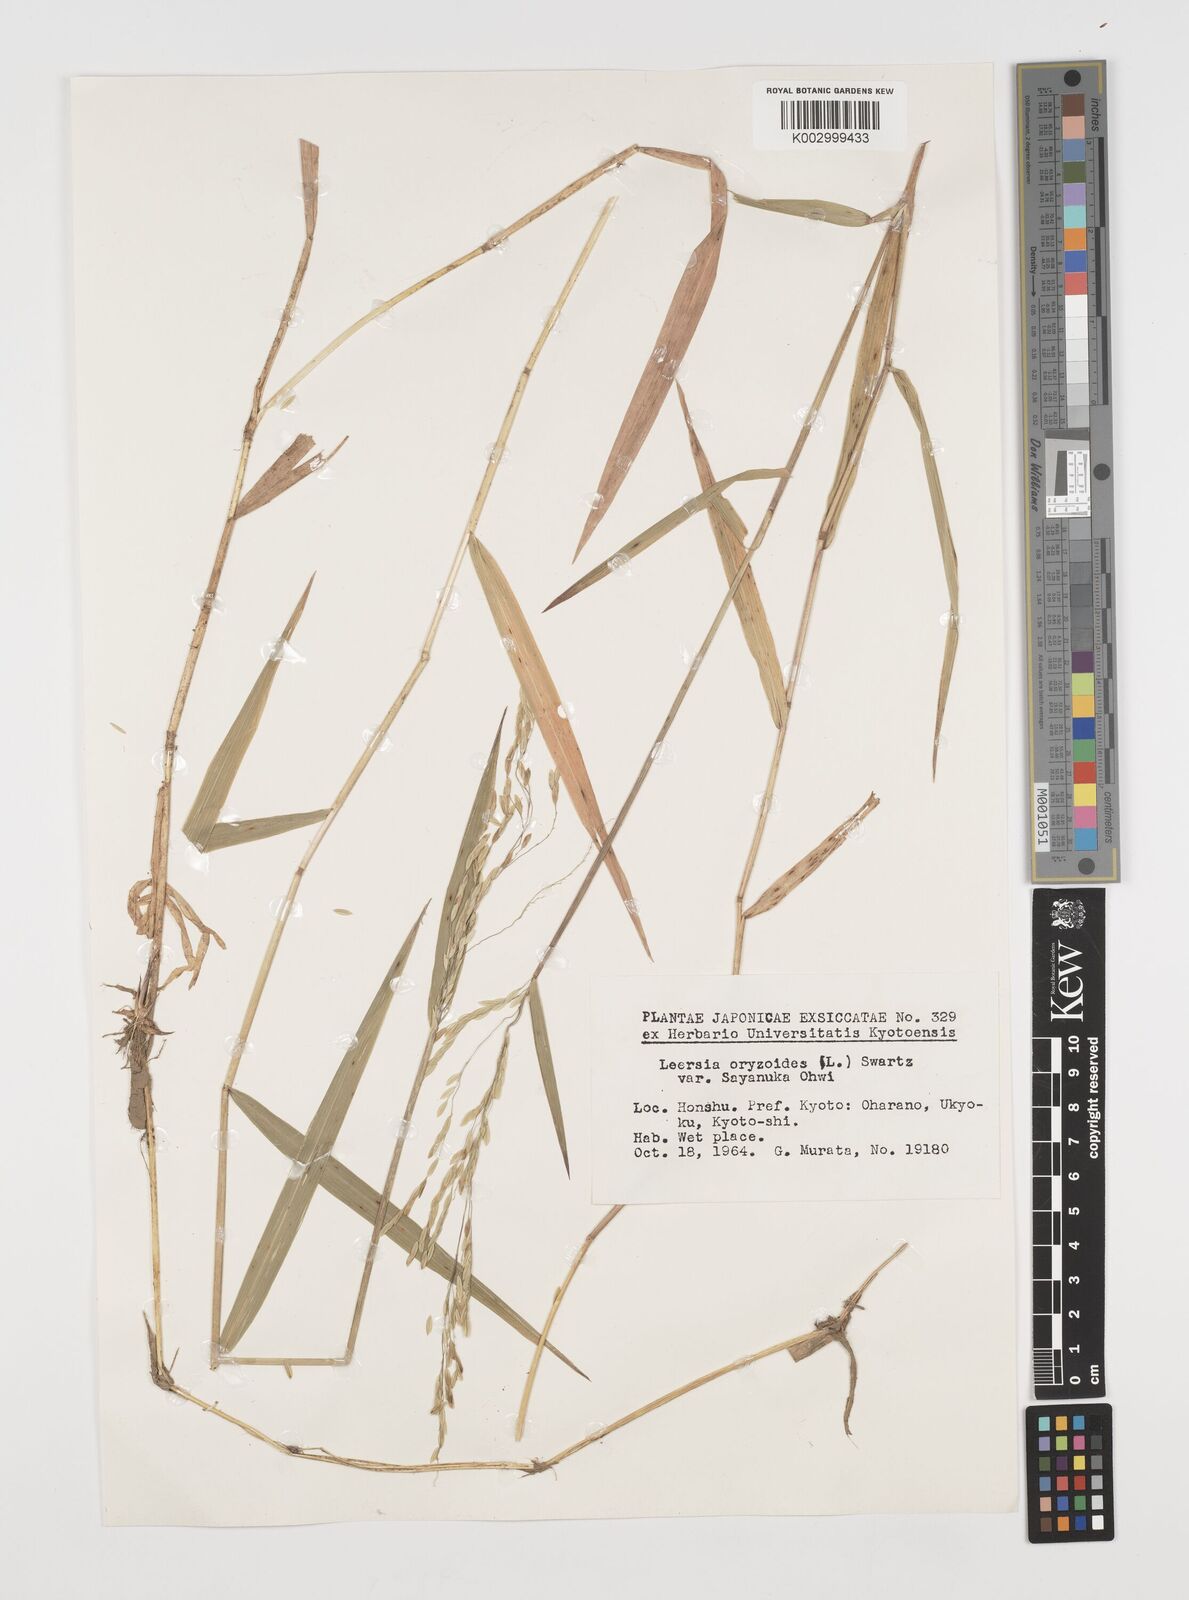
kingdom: Plantae
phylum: Tracheophyta
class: Liliopsida
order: Poales
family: Poaceae
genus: Leersia
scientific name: Leersia sayanuka
